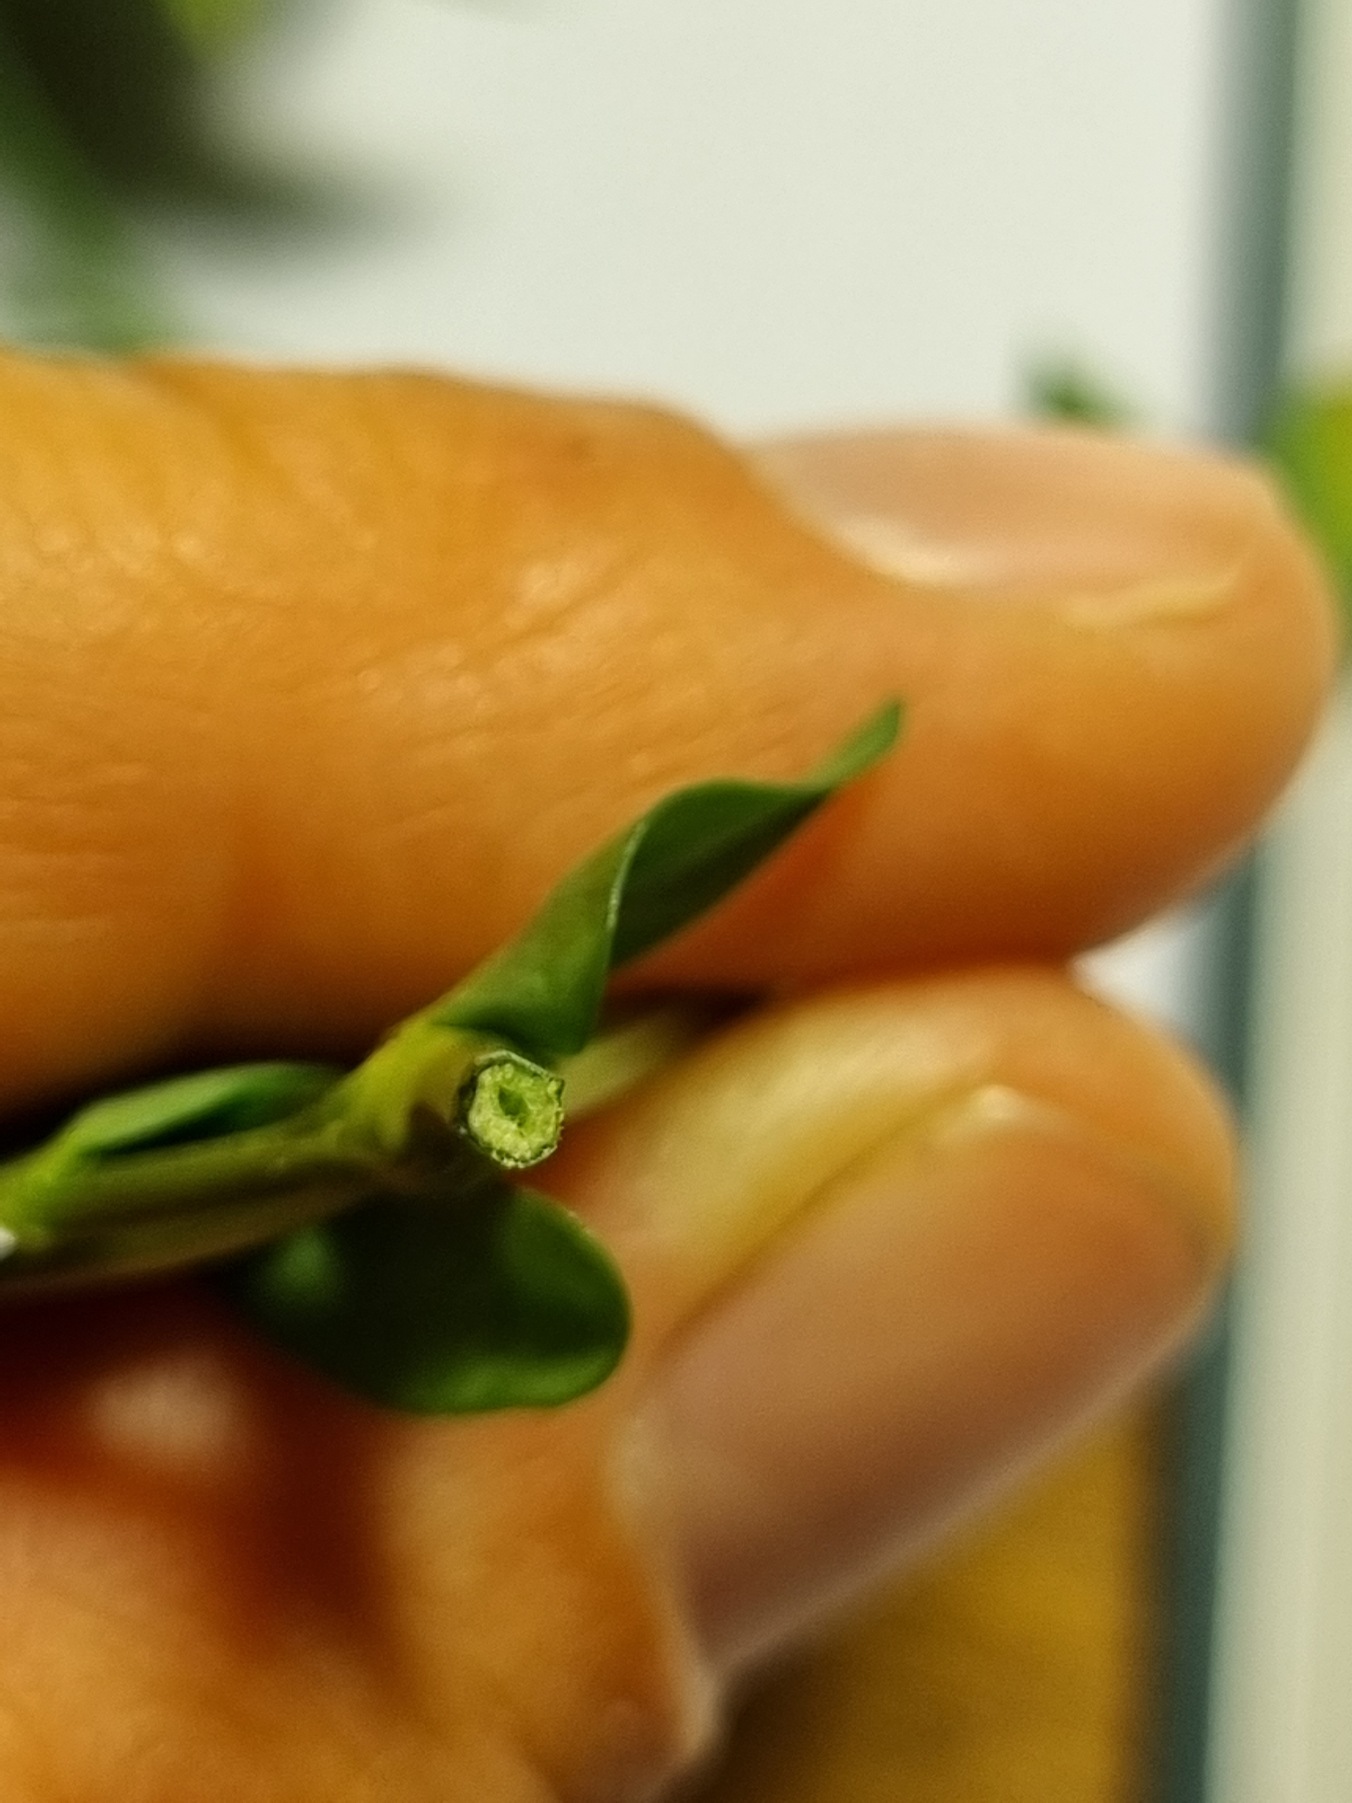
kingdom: Plantae
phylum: Tracheophyta
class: Magnoliopsida
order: Fabales
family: Fabaceae
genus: Lotus
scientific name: Lotus corniculatus
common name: Almindelig kællingetand
